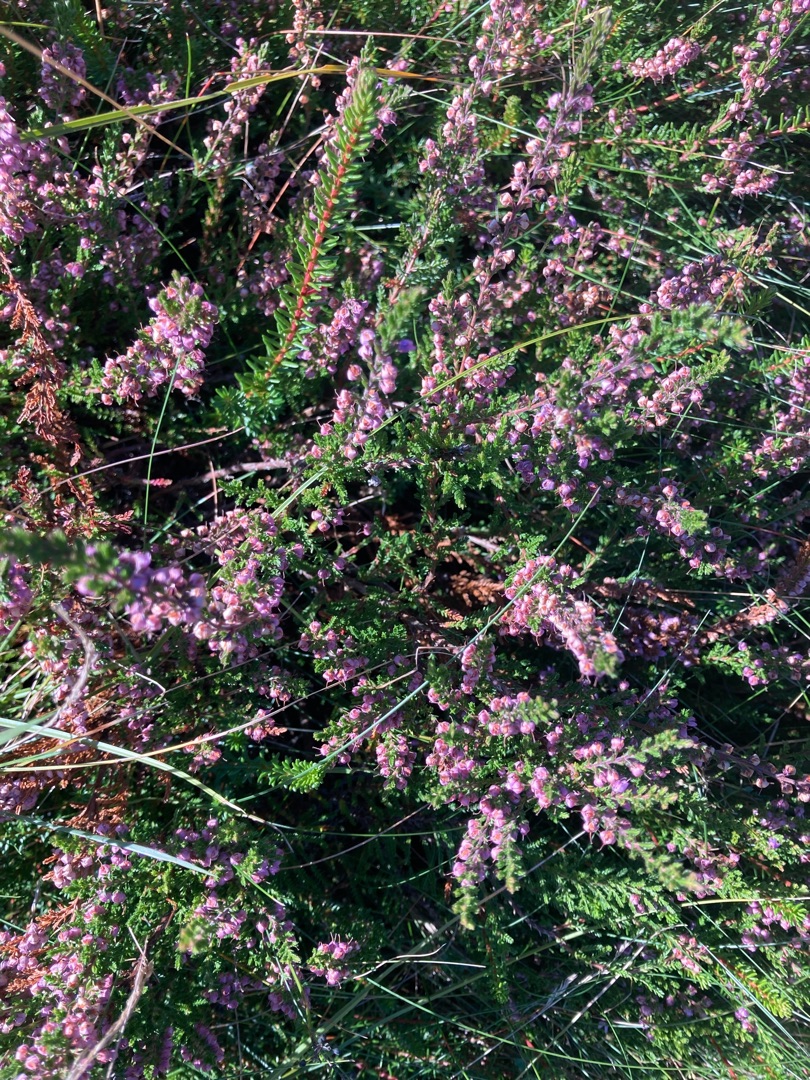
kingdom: Plantae
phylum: Tracheophyta
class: Magnoliopsida
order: Ericales
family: Ericaceae
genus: Calluna
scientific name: Calluna vulgaris
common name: Hedelyng
